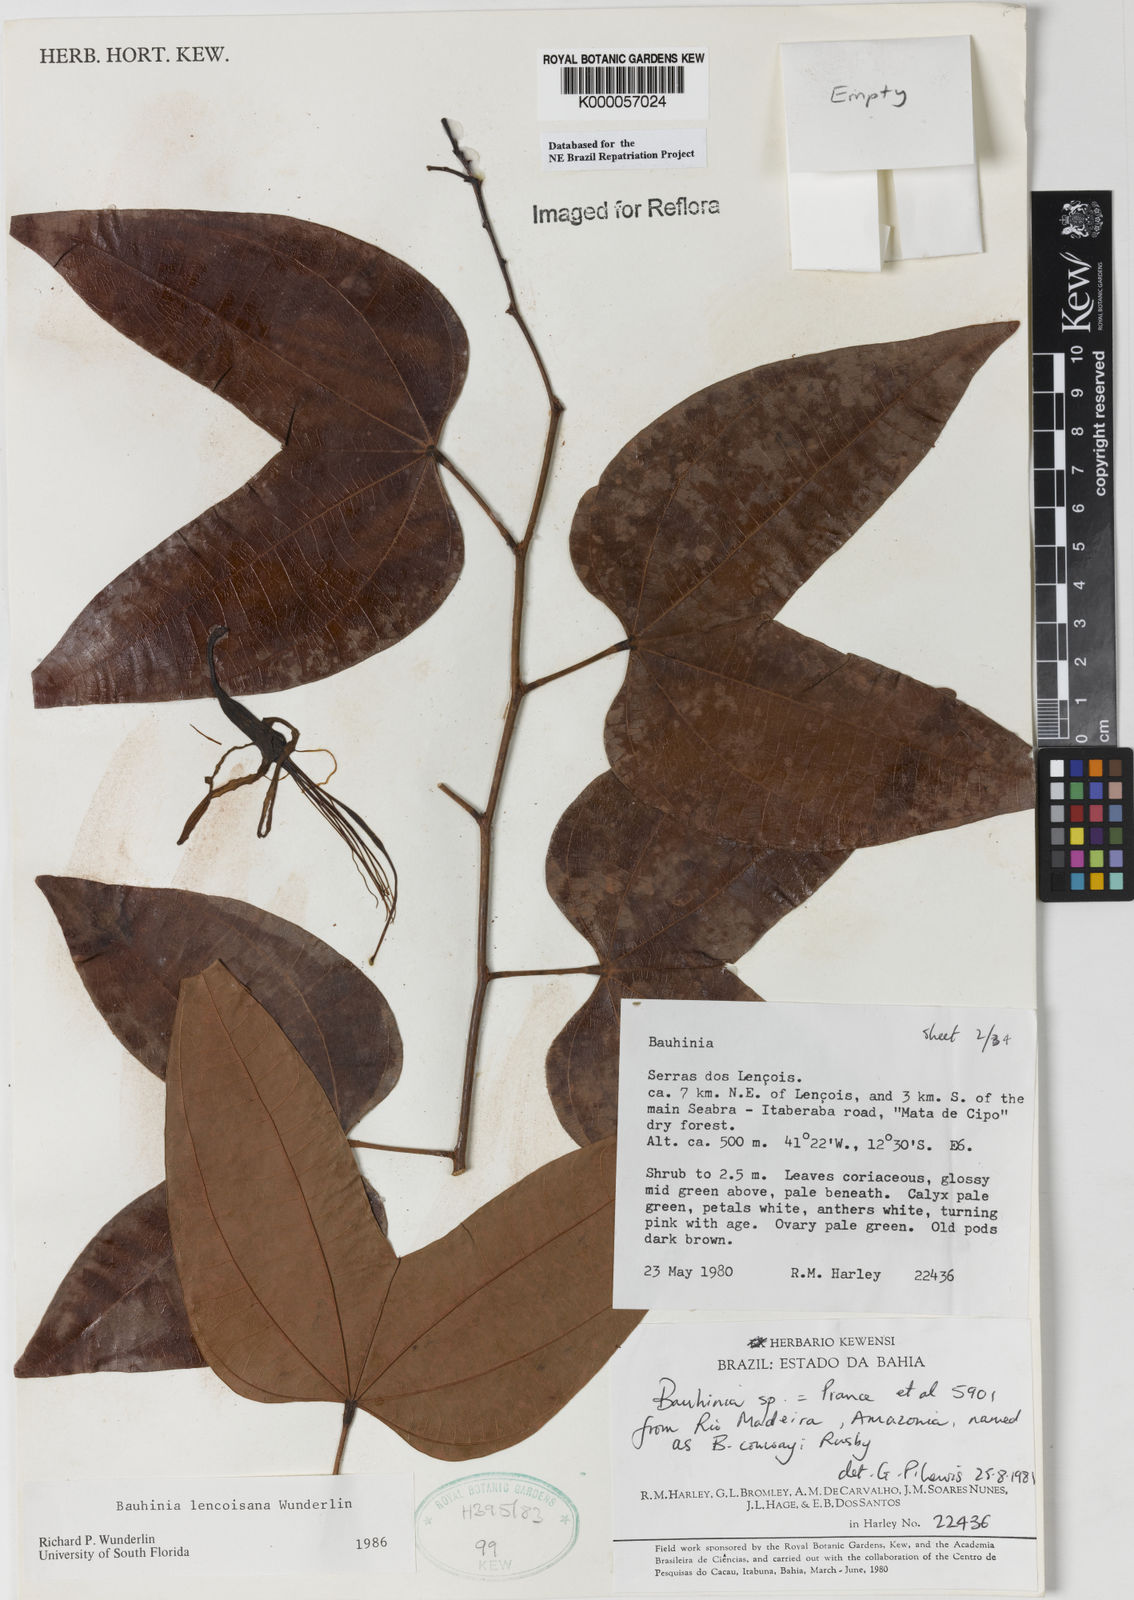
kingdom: Plantae
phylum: Tracheophyta
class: Magnoliopsida
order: Fabales
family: Fabaceae
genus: Bauhinia
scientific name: Bauhinia
